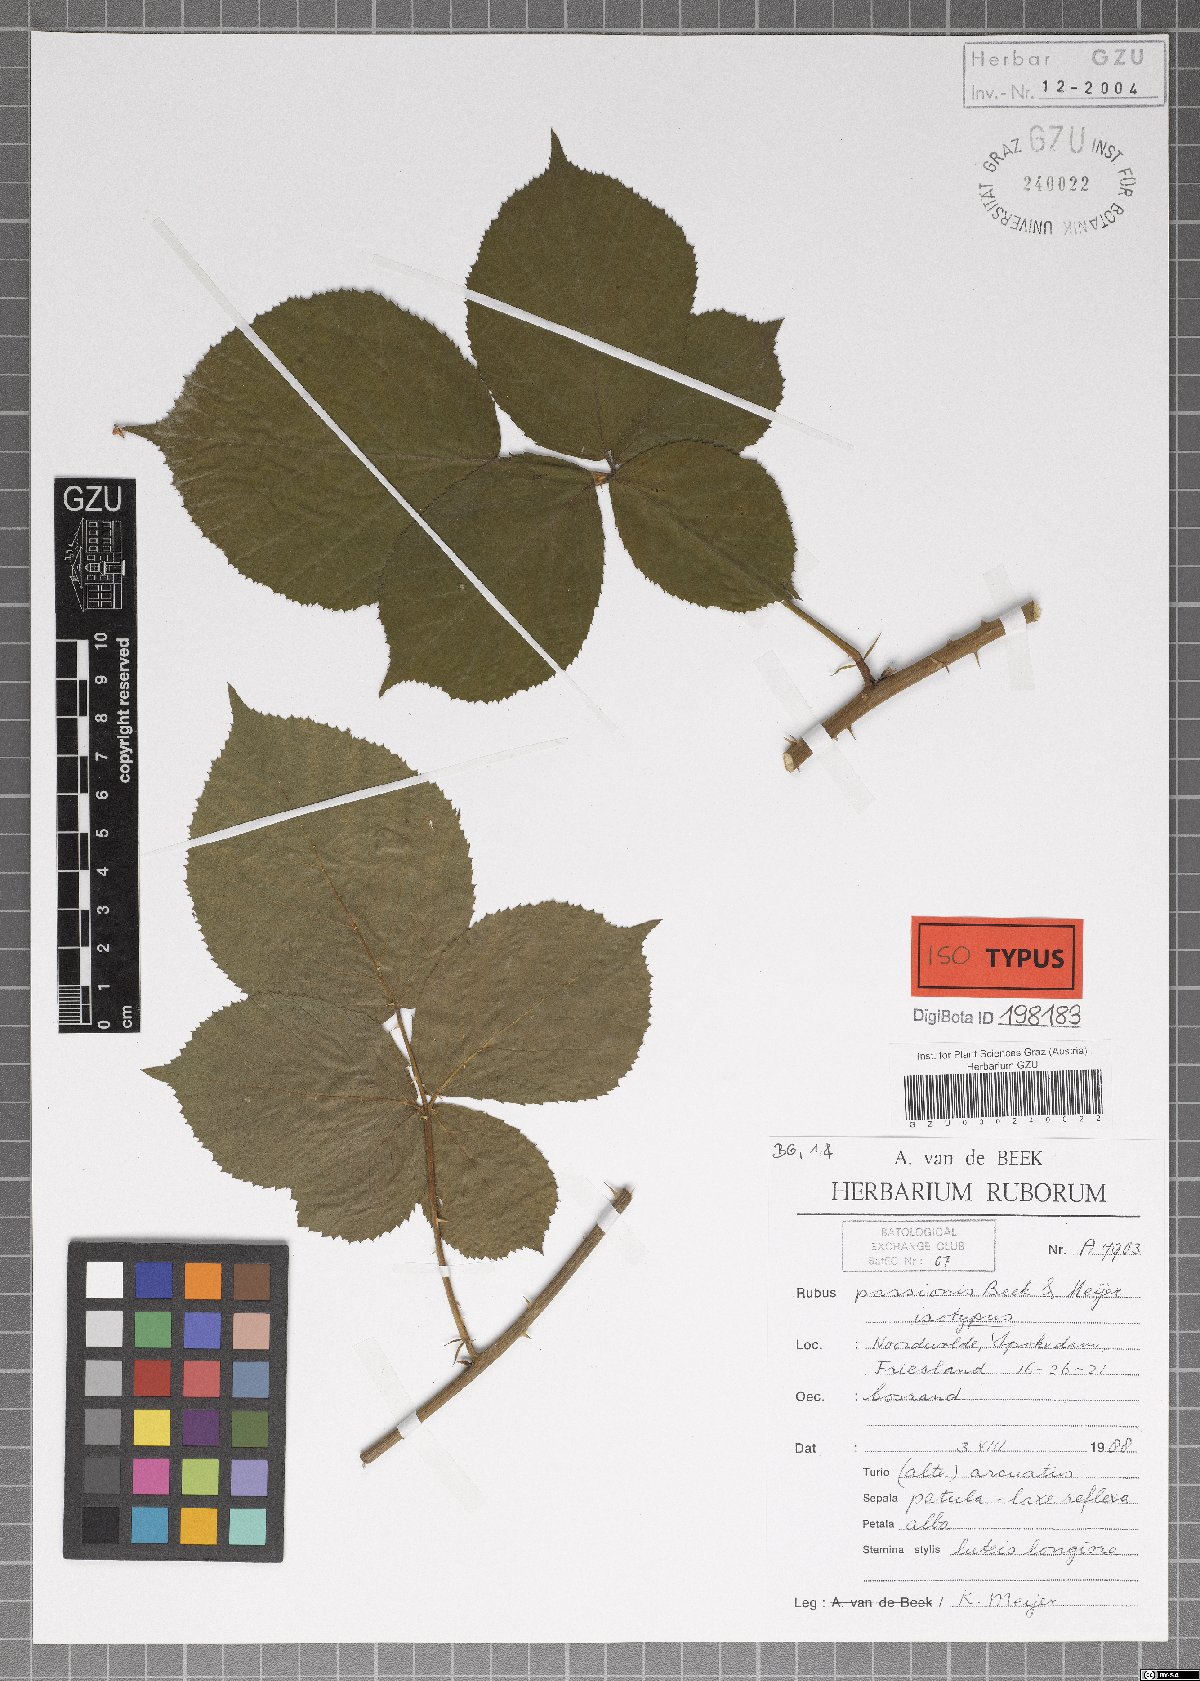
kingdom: Plantae
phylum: Tracheophyta
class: Magnoliopsida
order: Rosales
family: Rosaceae
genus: Rubus
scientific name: Rubus passionis
